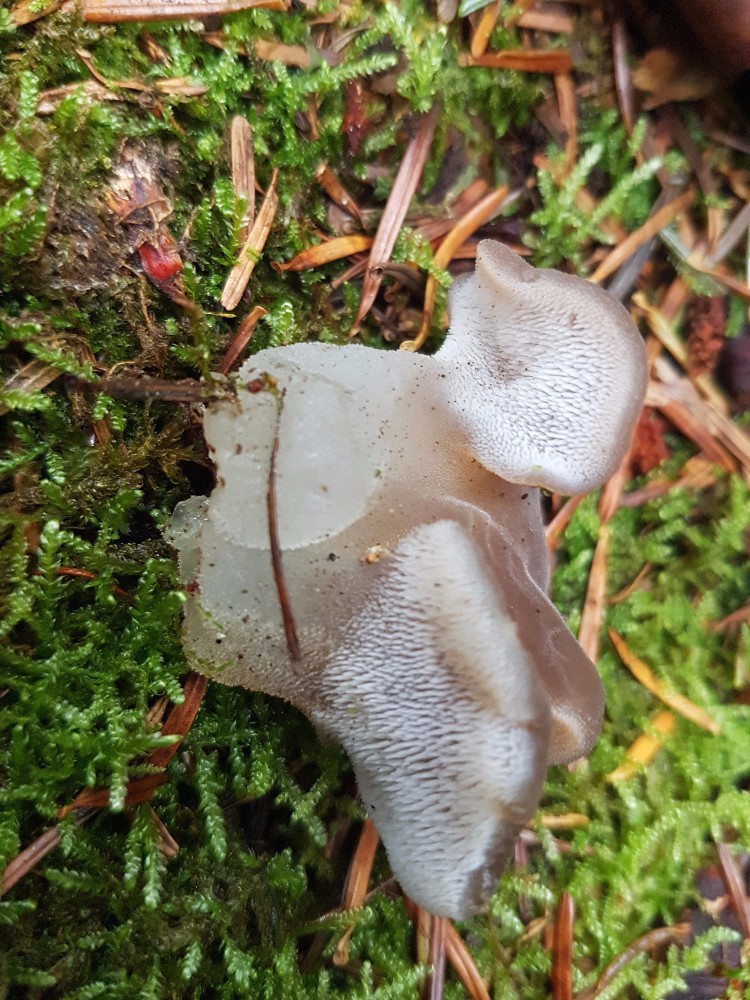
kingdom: Fungi
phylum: Basidiomycota
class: Agaricomycetes
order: Auriculariales
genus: Pseudohydnum
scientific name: Pseudohydnum gelatinosum
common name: bævretand
